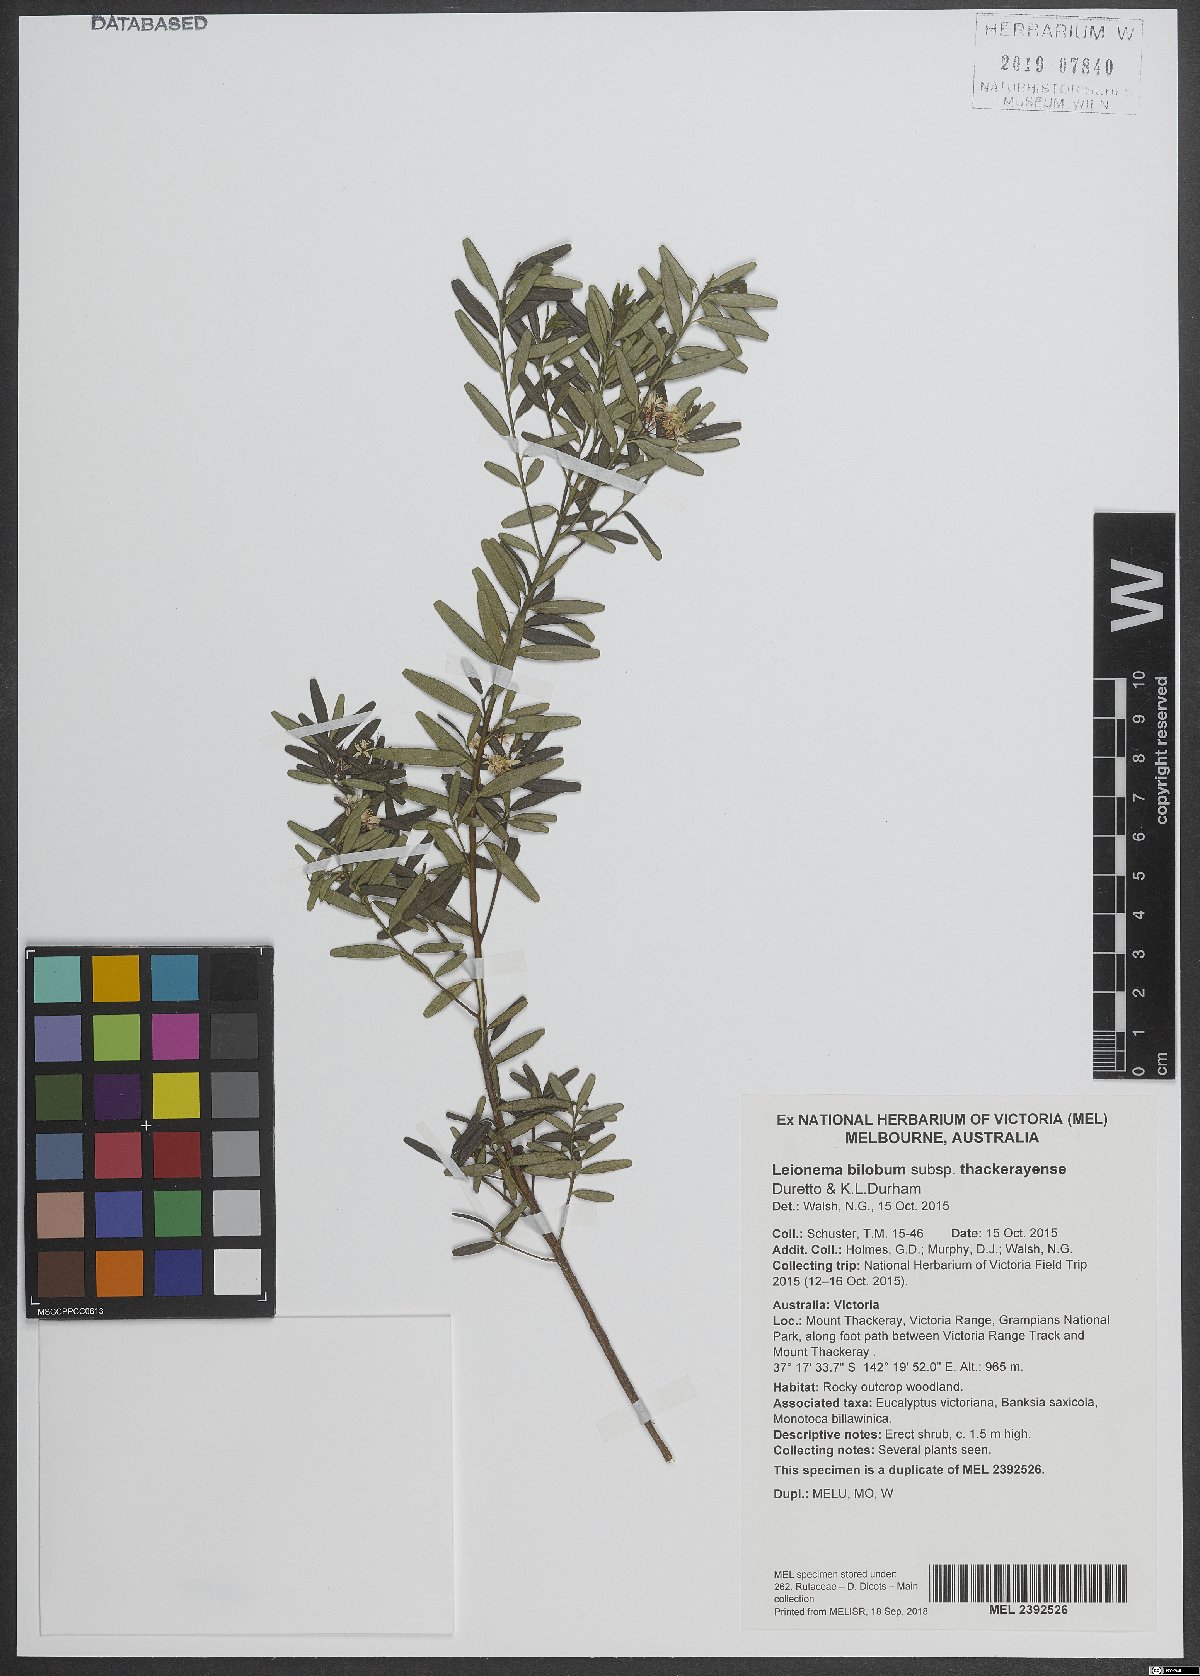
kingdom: Plantae
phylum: Tracheophyta
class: Magnoliopsida
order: Sapindales
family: Rutaceae
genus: Leionema
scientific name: Leionema bilobum
